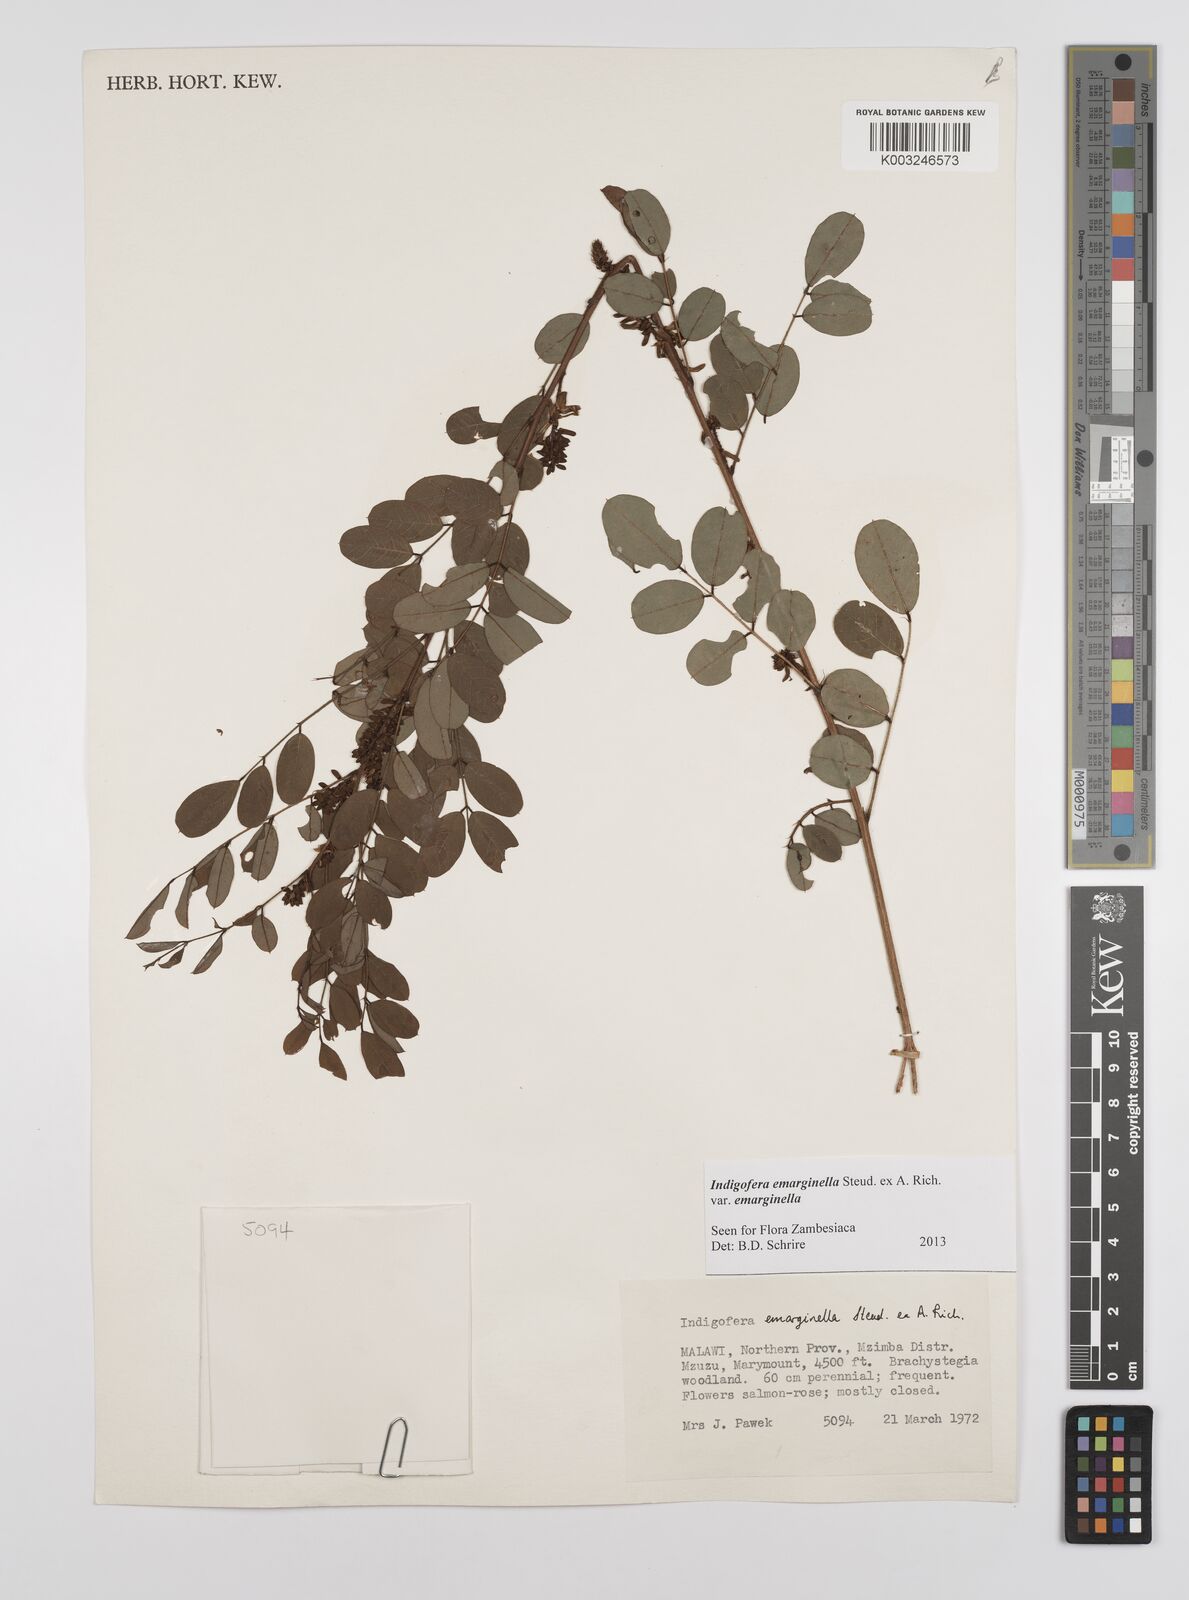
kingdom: Plantae
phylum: Tracheophyta
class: Magnoliopsida
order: Fabales
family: Fabaceae
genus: Indigofera
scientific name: Indigofera emarginella
